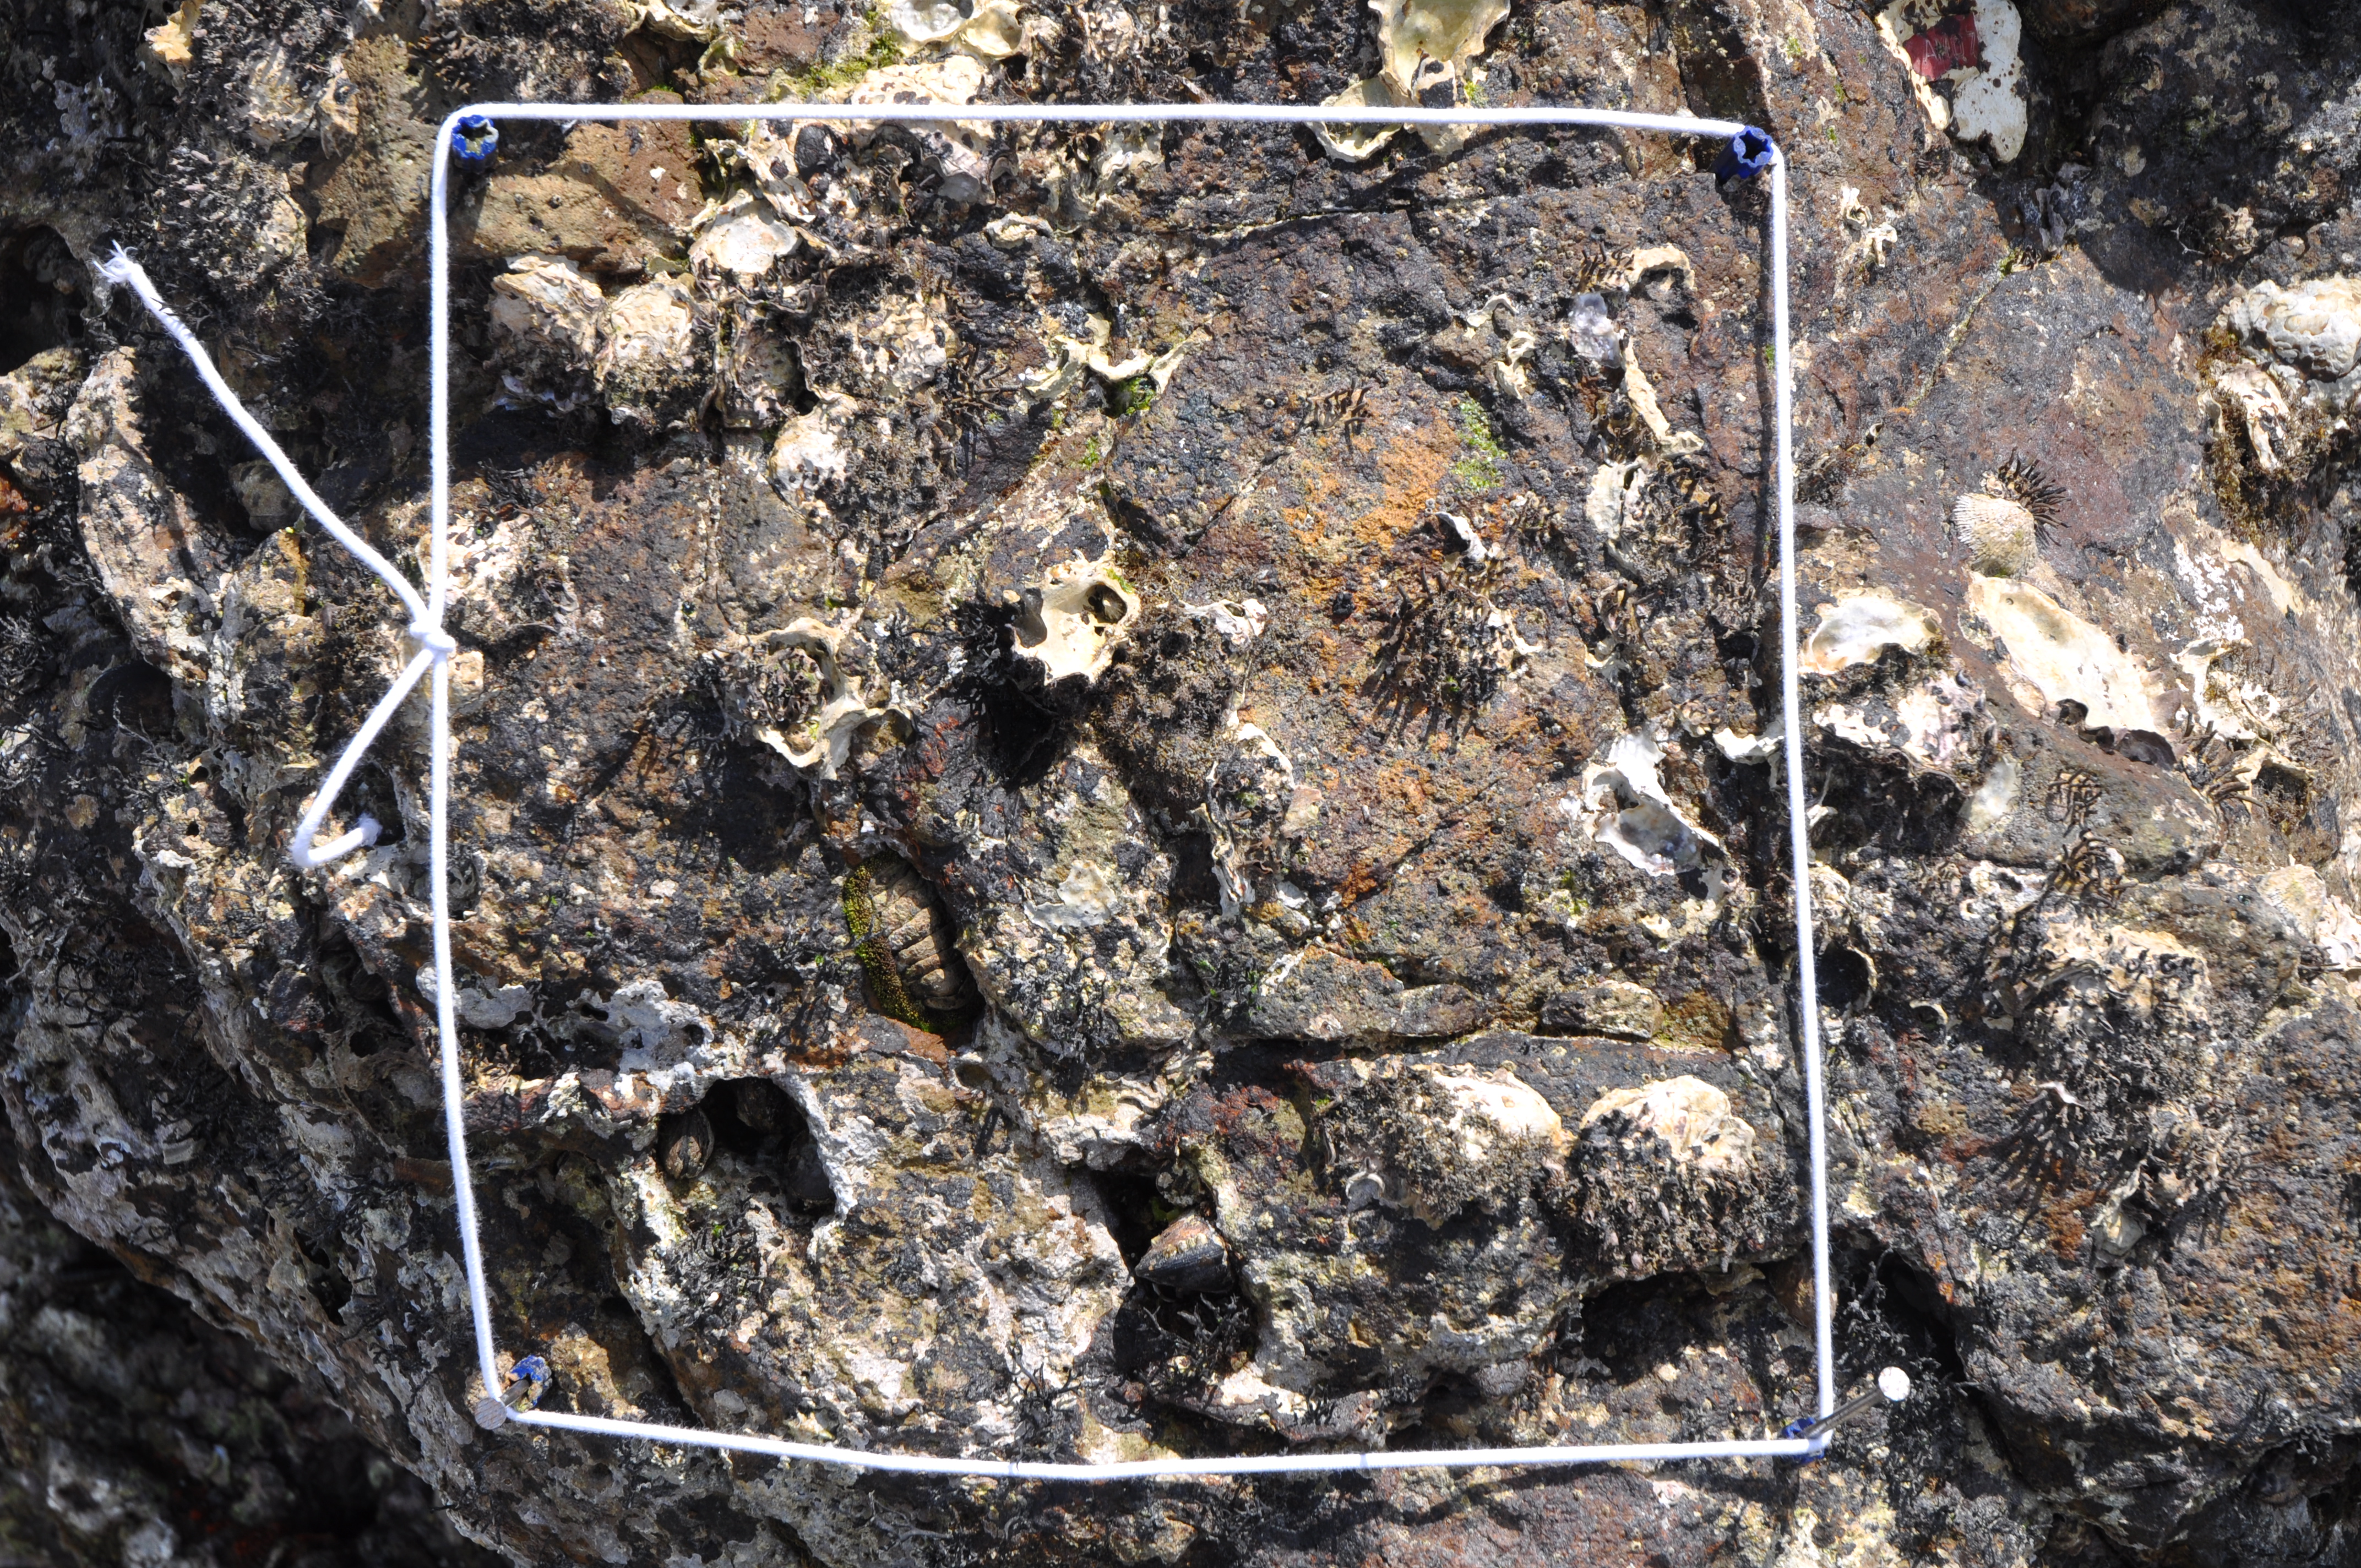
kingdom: Animalia
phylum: Arthropoda
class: Maxillopoda
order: Sessilia
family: Chthamalidae
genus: Chthamalus
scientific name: Chthamalus challengeri
